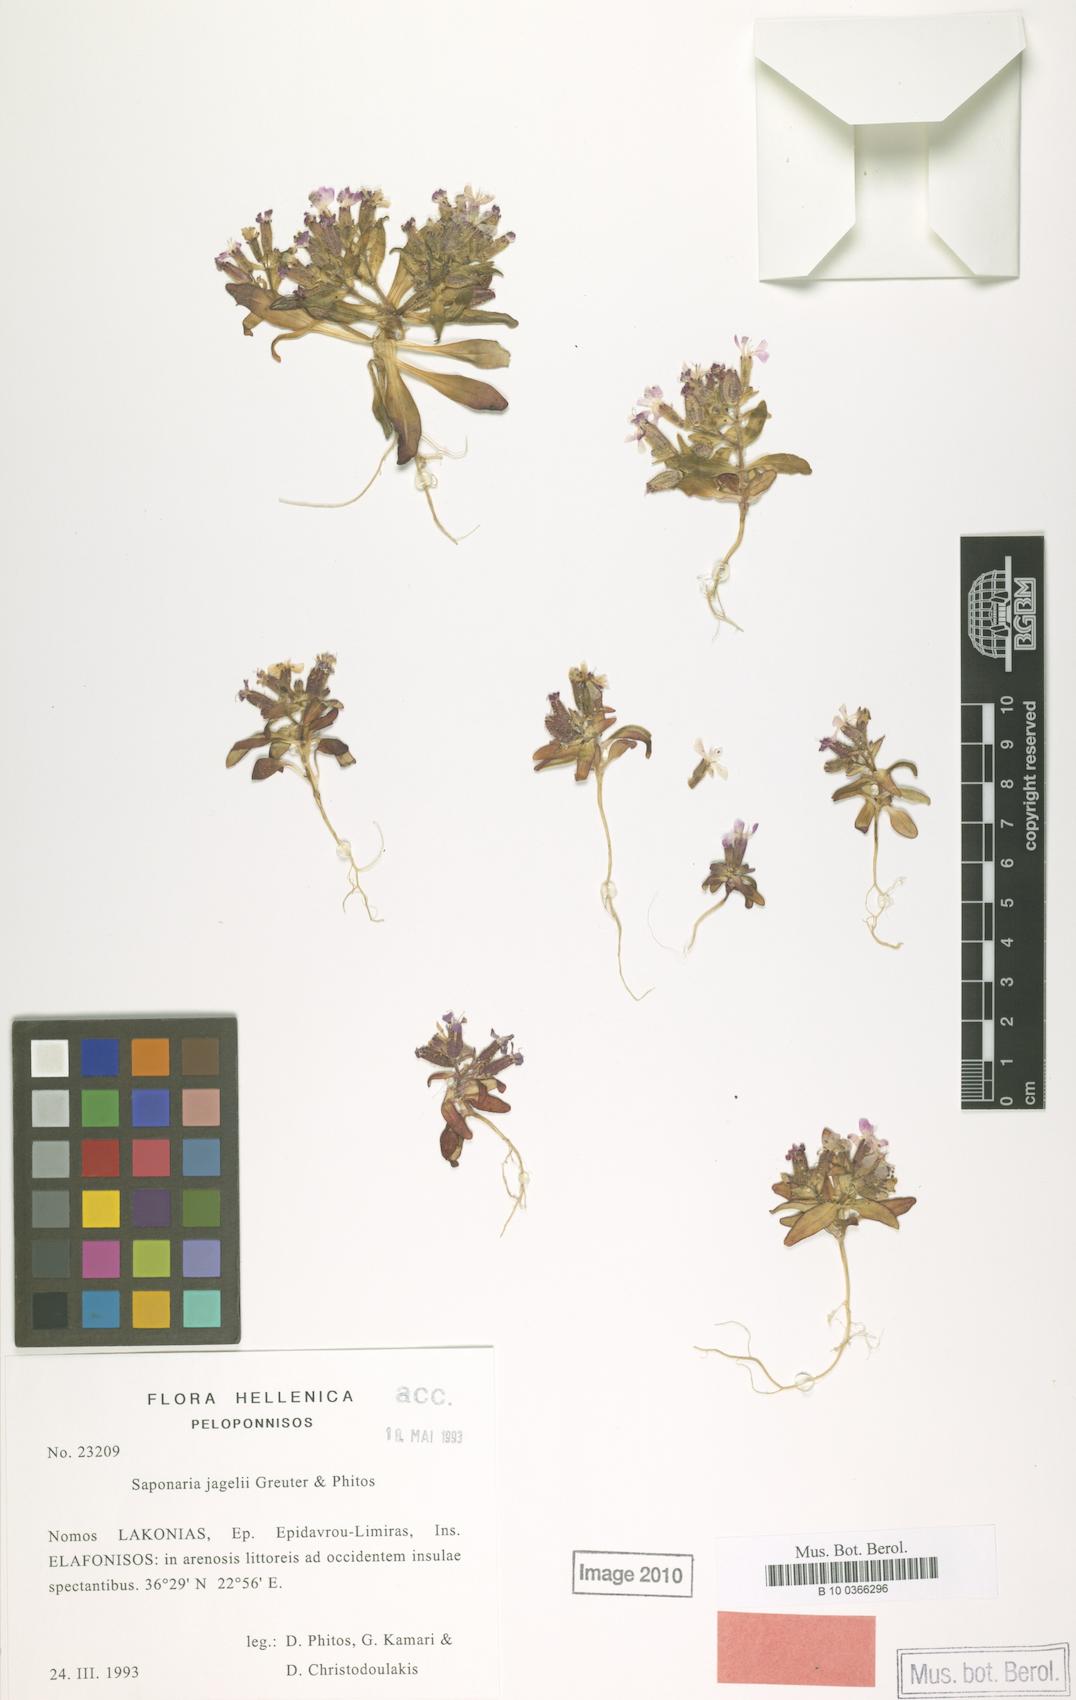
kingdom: Plantae
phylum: Tracheophyta
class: Magnoliopsida
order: Caryophyllales
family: Caryophyllaceae
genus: Saponaria
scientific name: Saponaria jagelii
